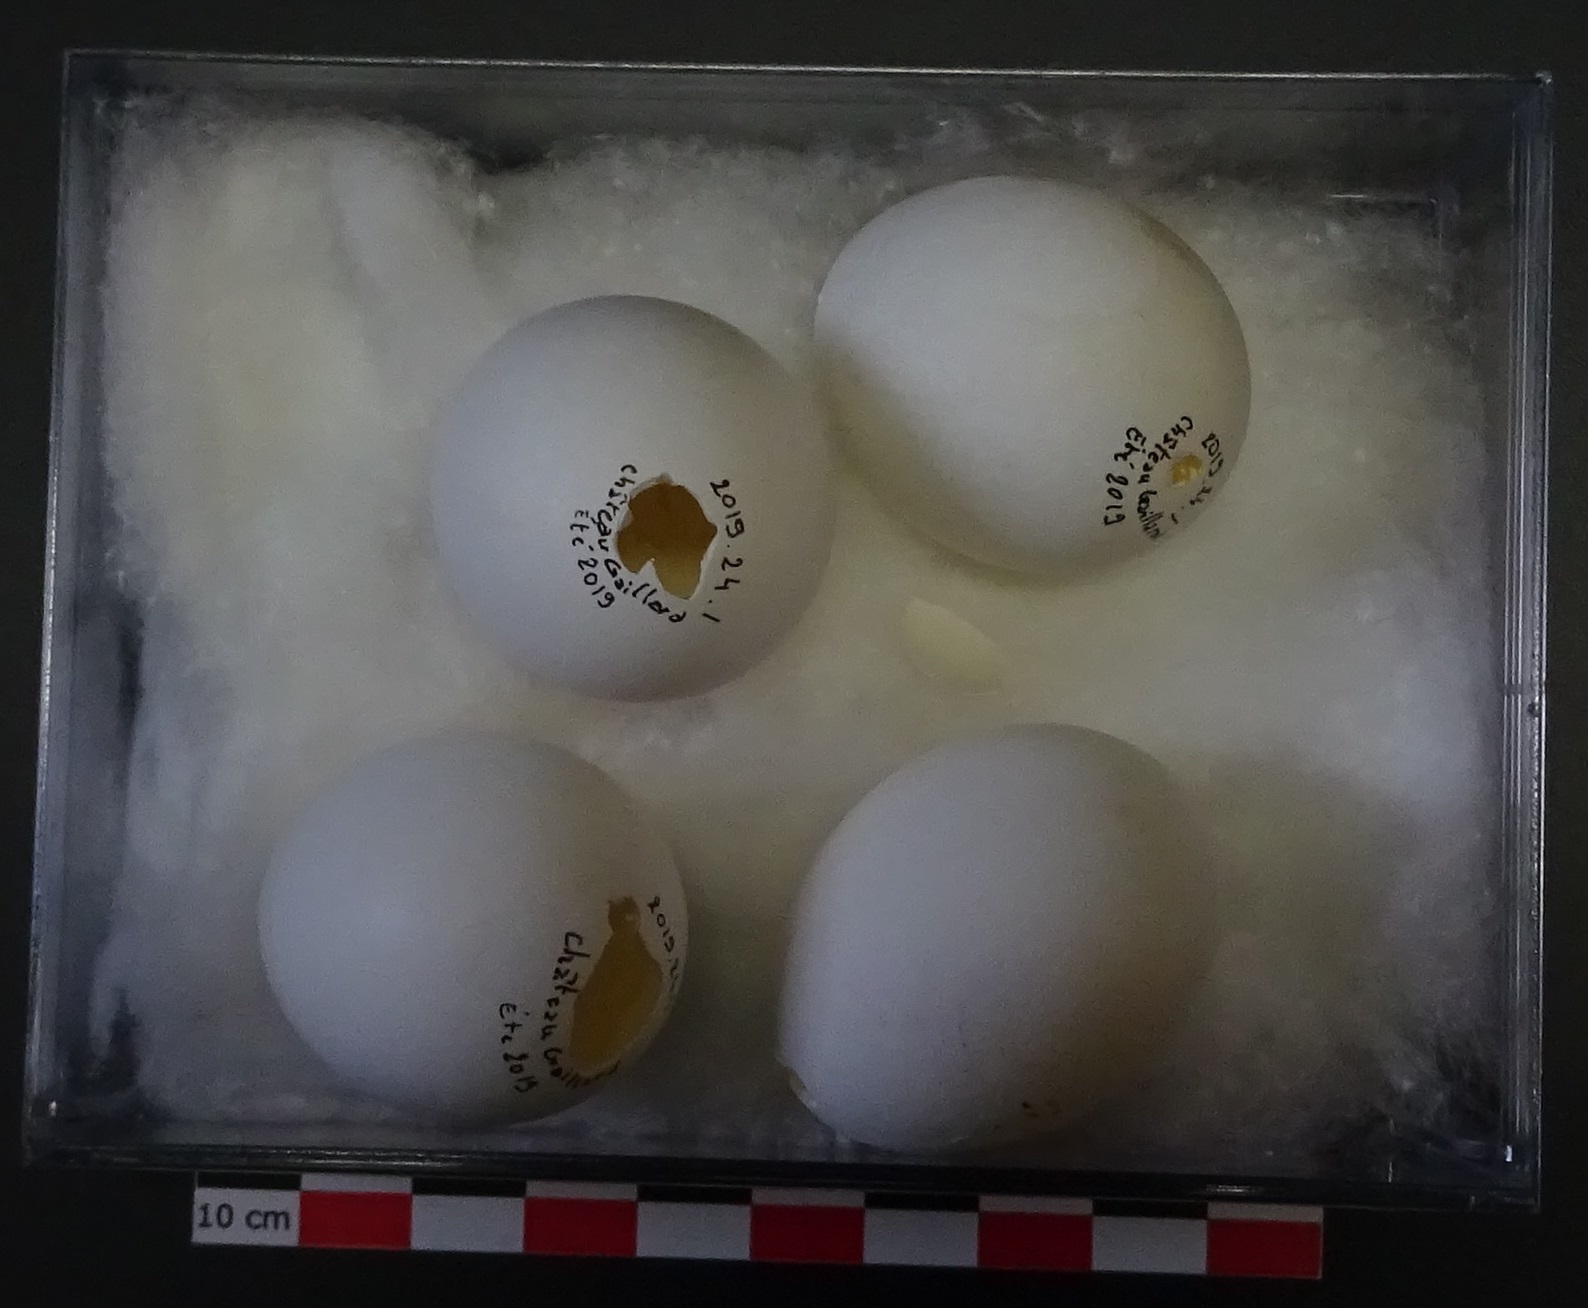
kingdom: Animalia
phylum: Chordata
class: Aves
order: Strigiformes
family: Tytonidae
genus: Tyto
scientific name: Tyto alba
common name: Barn owl
